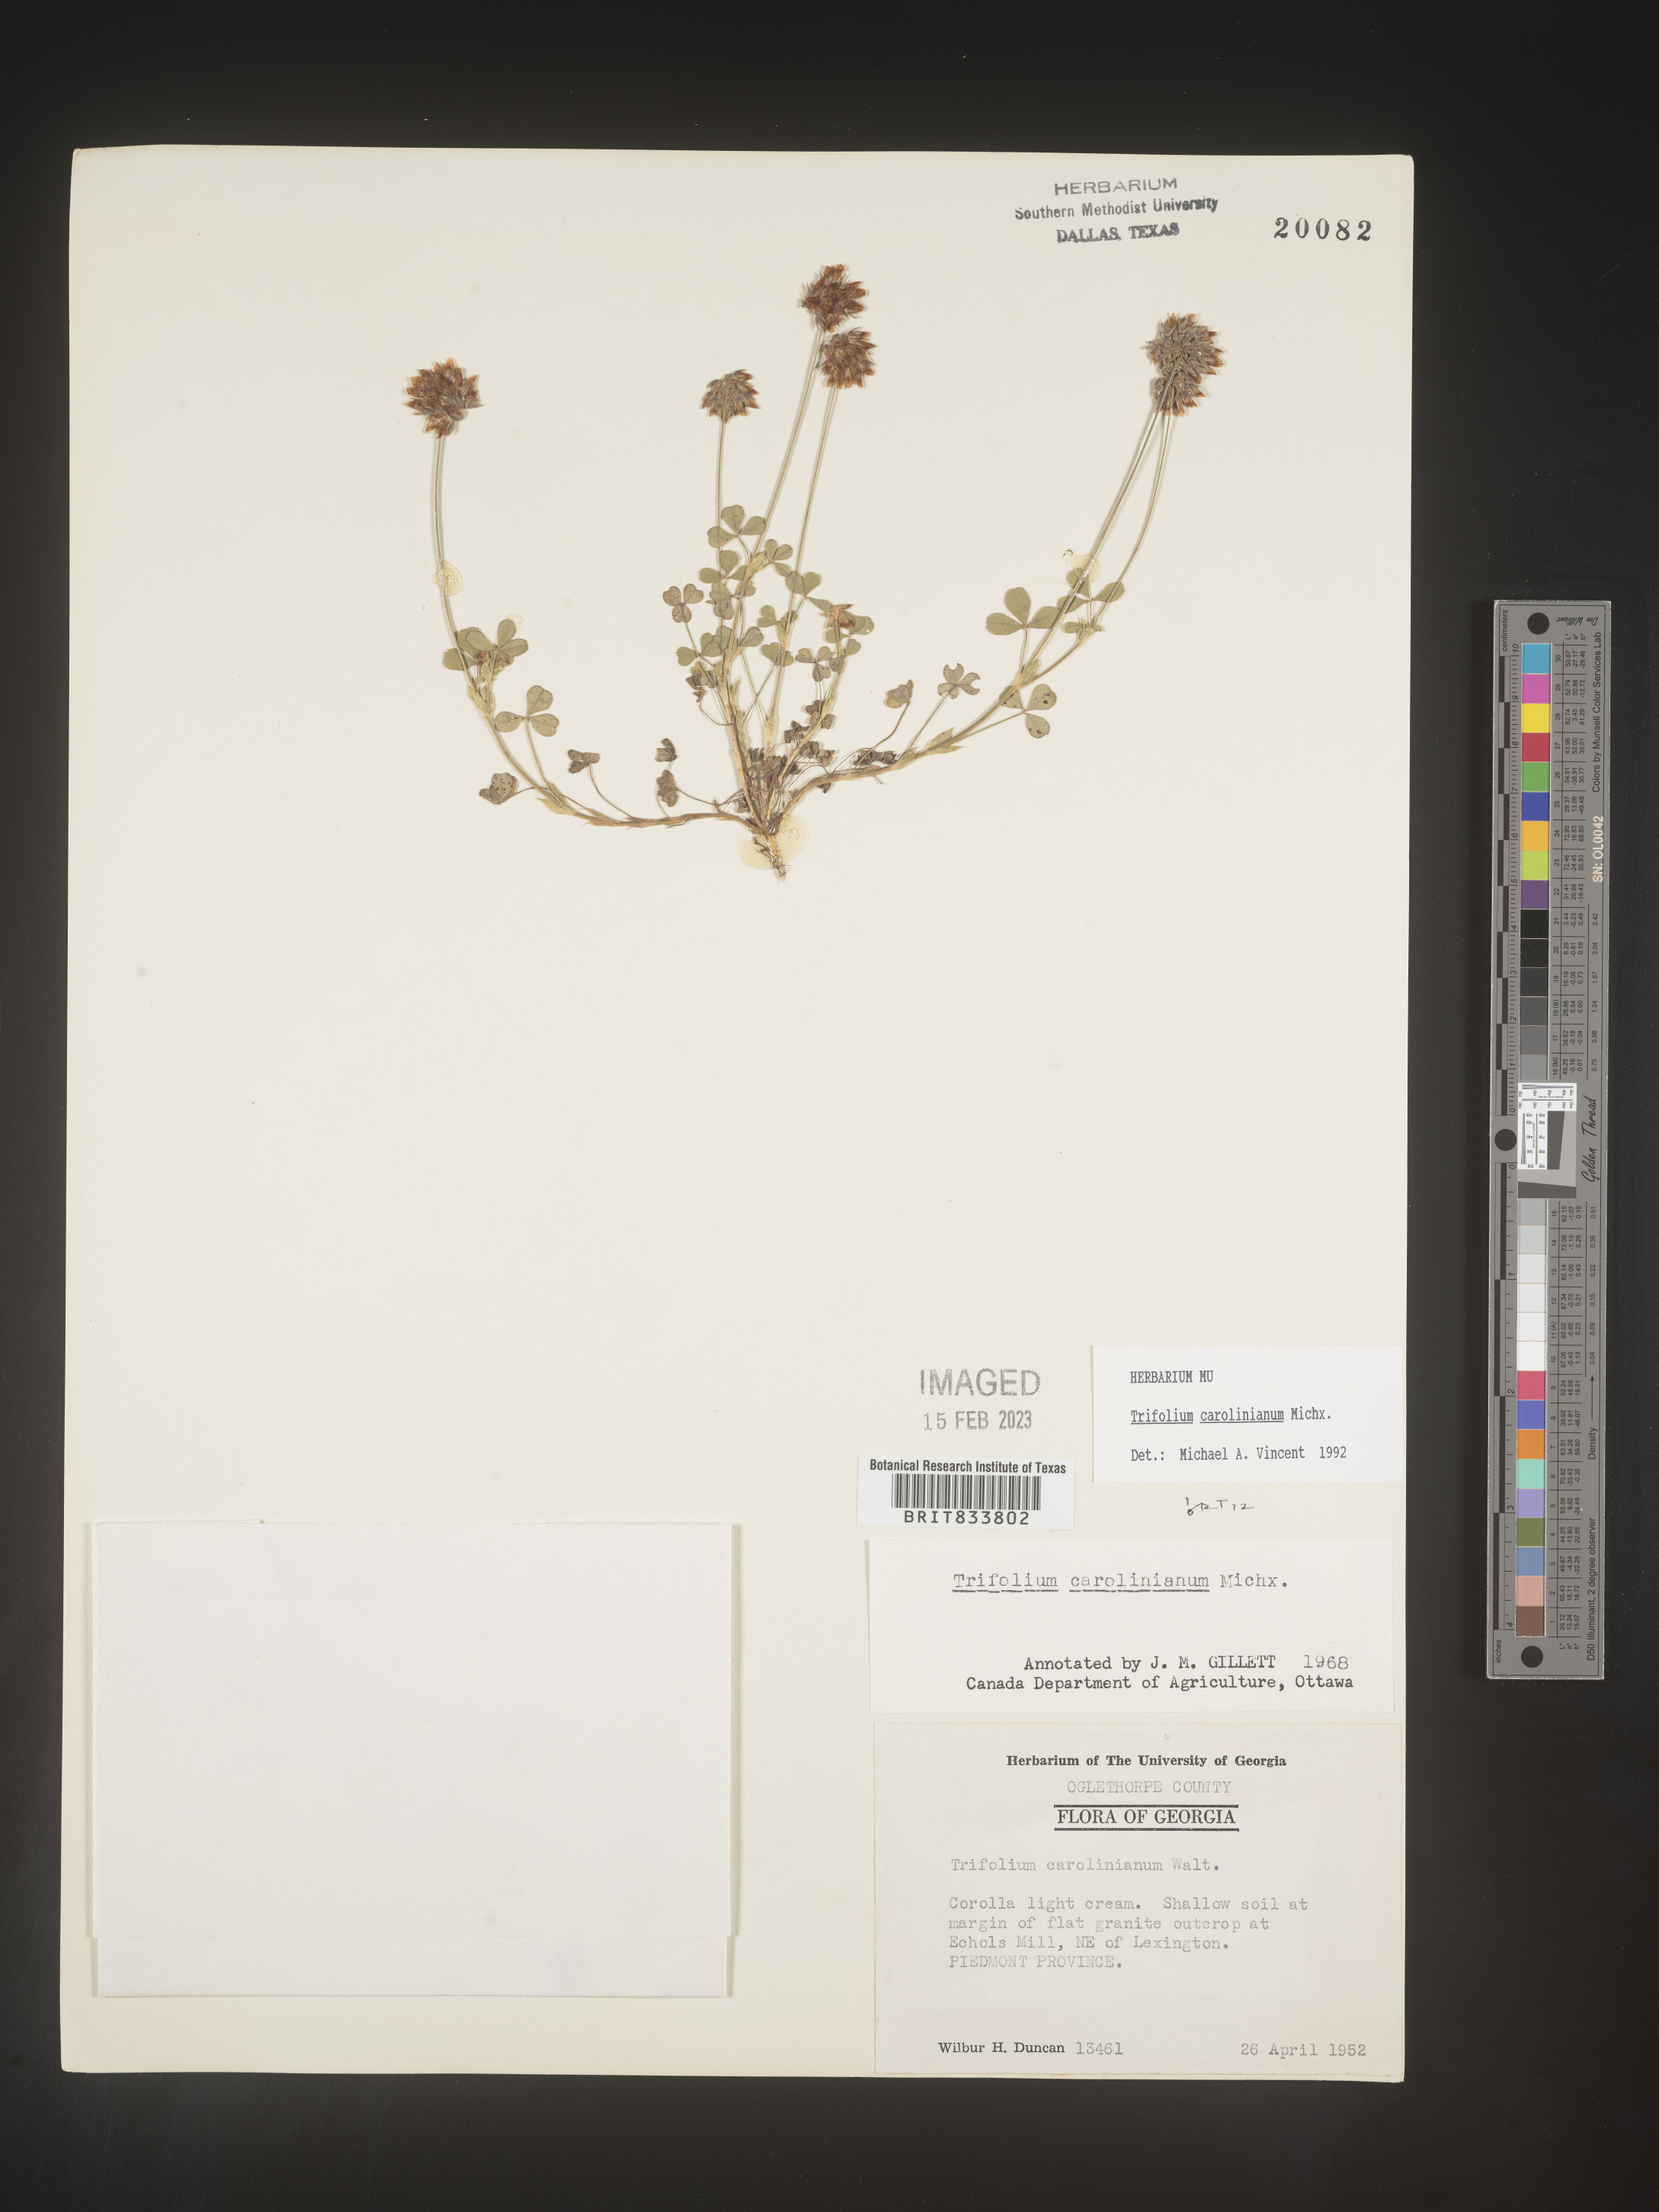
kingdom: Plantae
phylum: Tracheophyta
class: Magnoliopsida
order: Fabales
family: Fabaceae
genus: Trifolium
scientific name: Trifolium carolinianum
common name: Wild white clover
